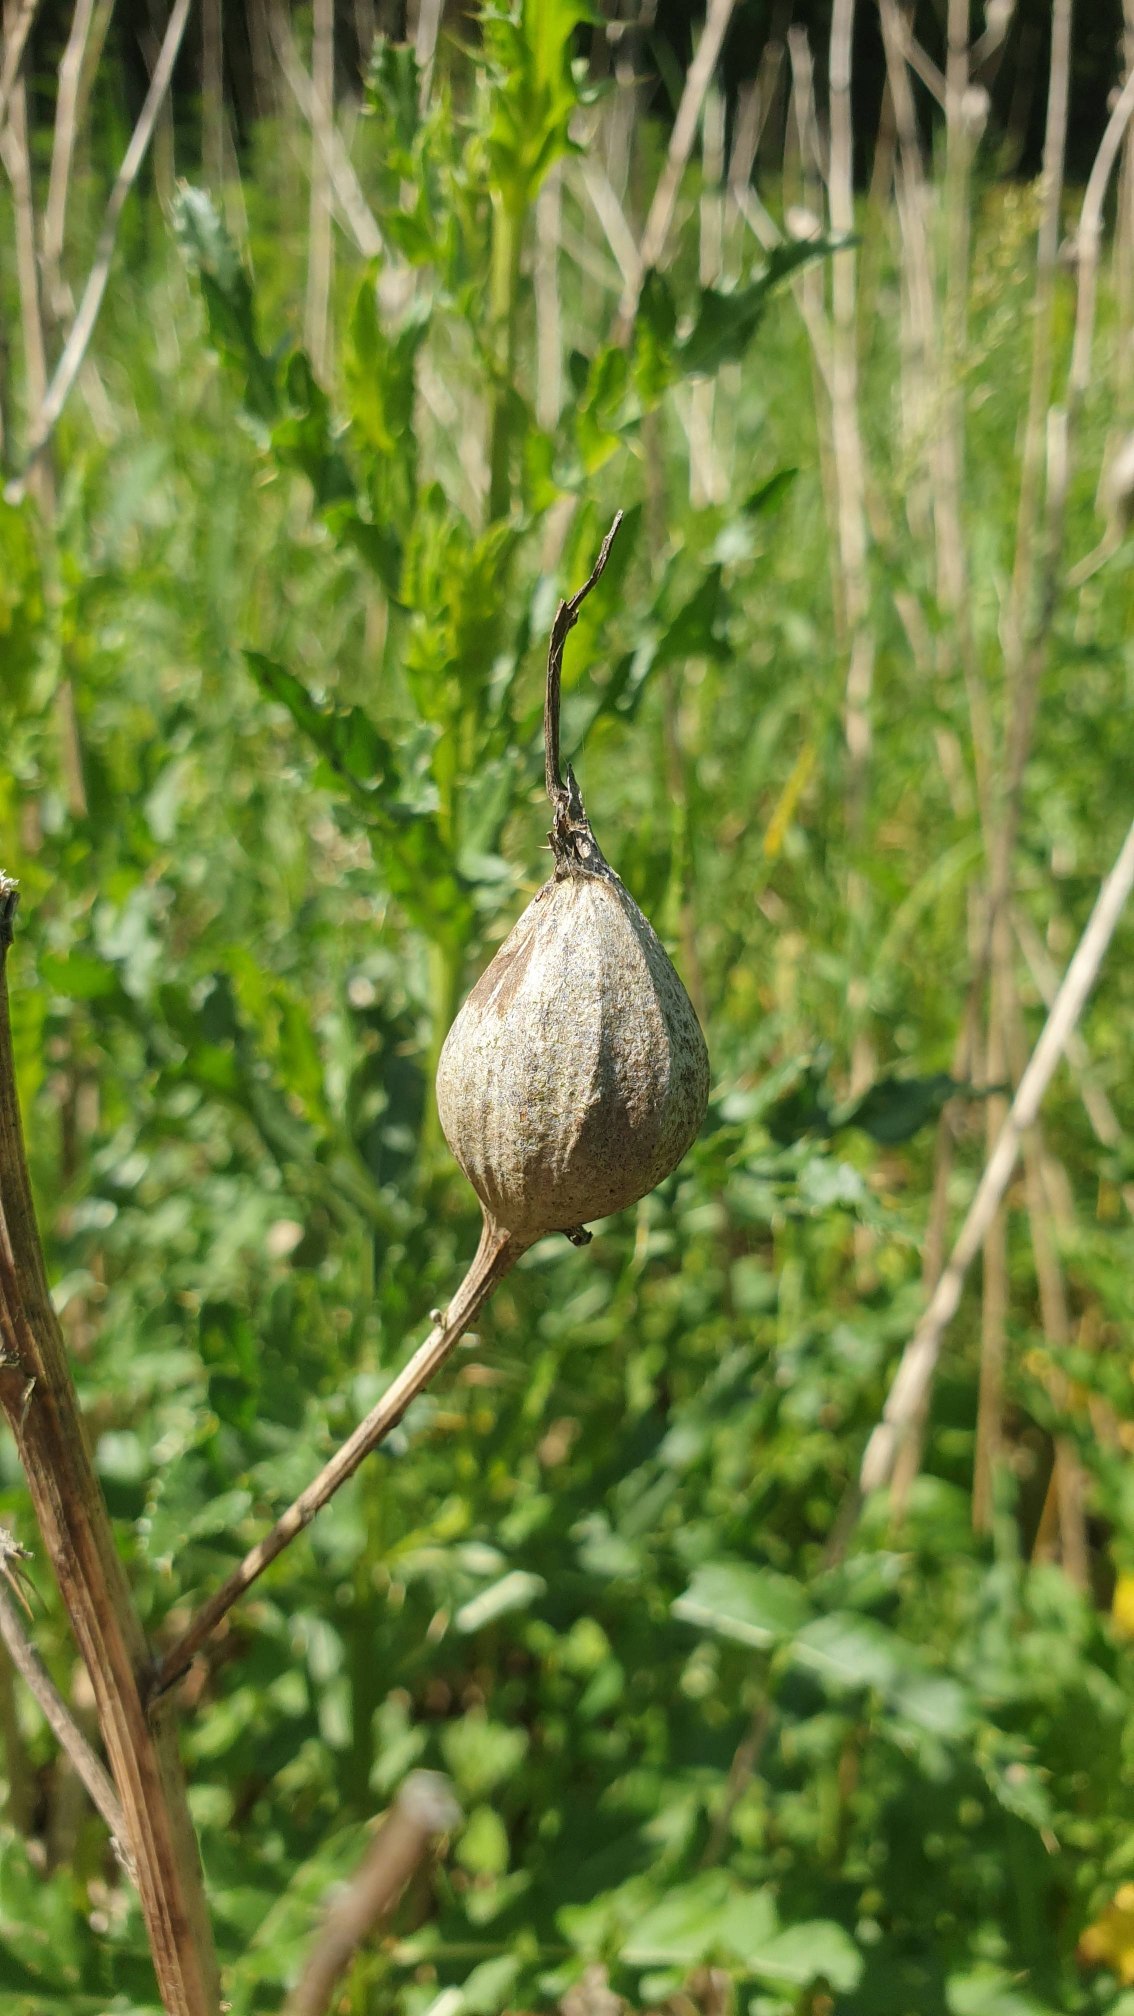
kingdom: Animalia
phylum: Arthropoda
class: Insecta
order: Diptera
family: Tephritidae
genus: Urophora
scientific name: Urophora cardui
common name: Tidselbåndflue
